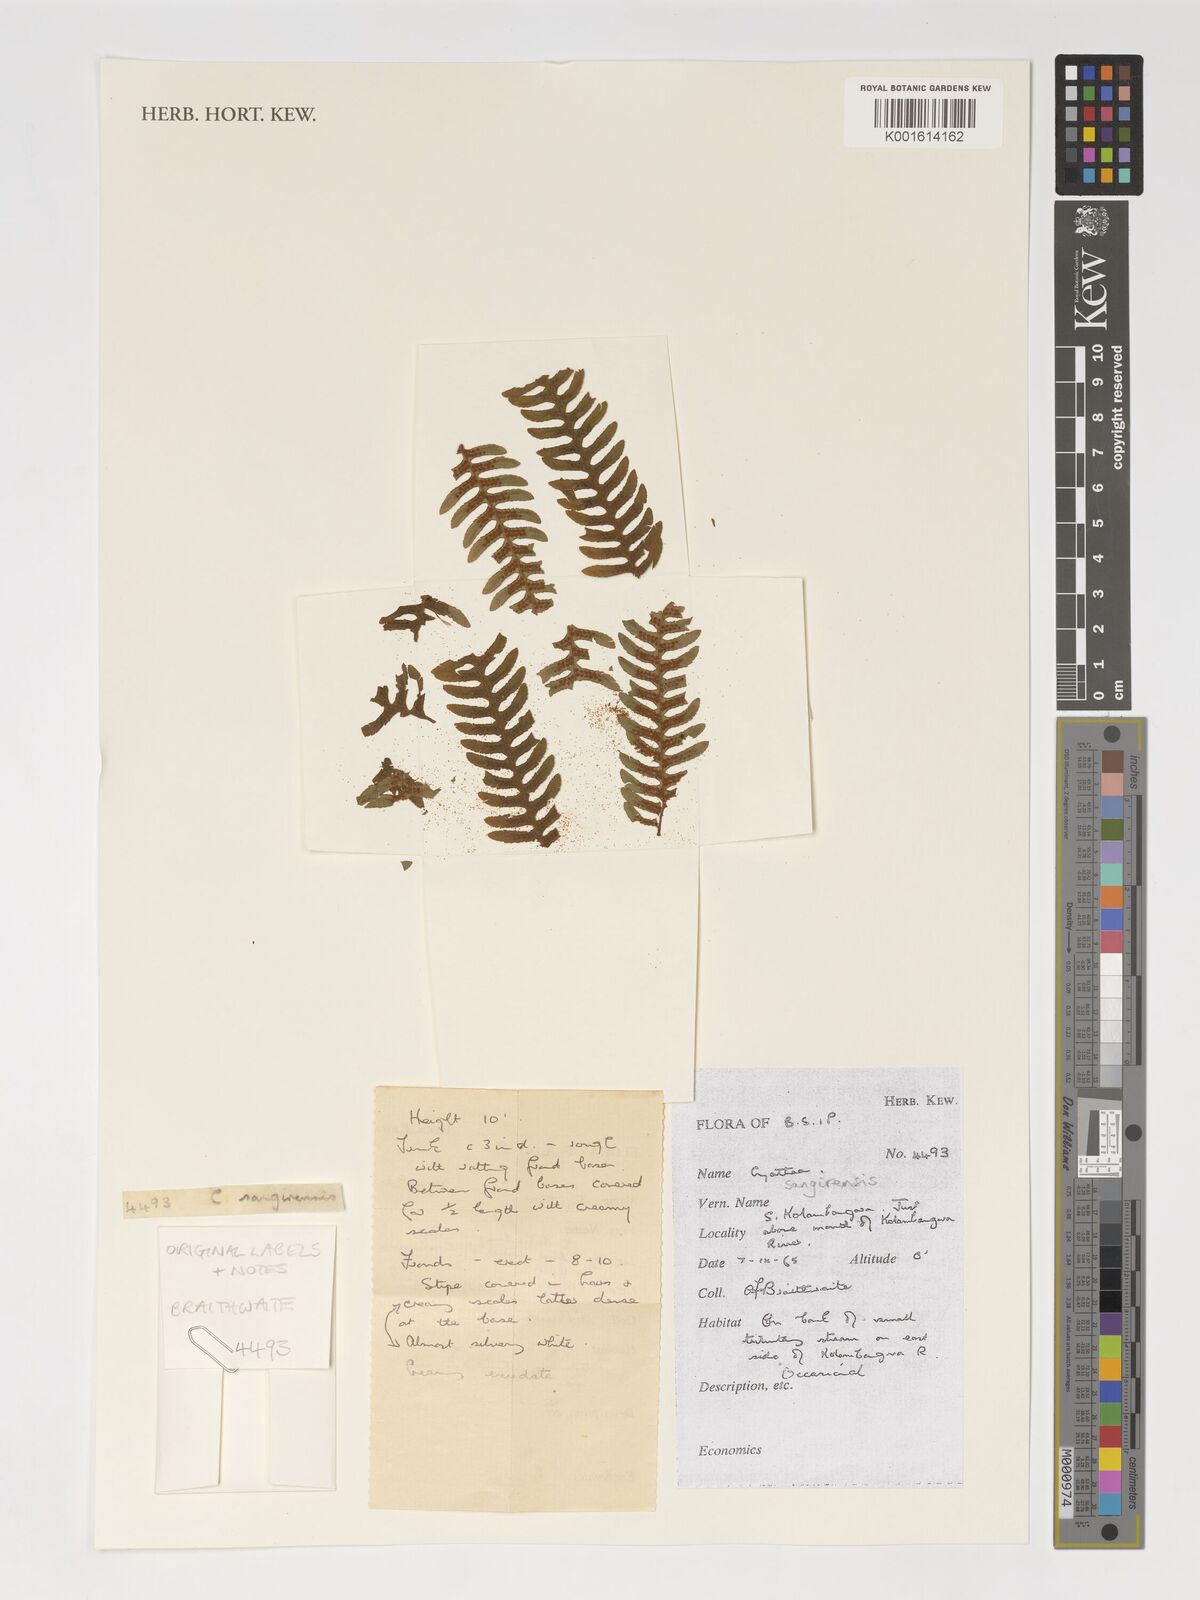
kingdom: Plantae
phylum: Tracheophyta
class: Polypodiopsida
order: Cyatheales
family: Cyatheaceae
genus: Sphaeropteris
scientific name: Sphaeropteris felina
